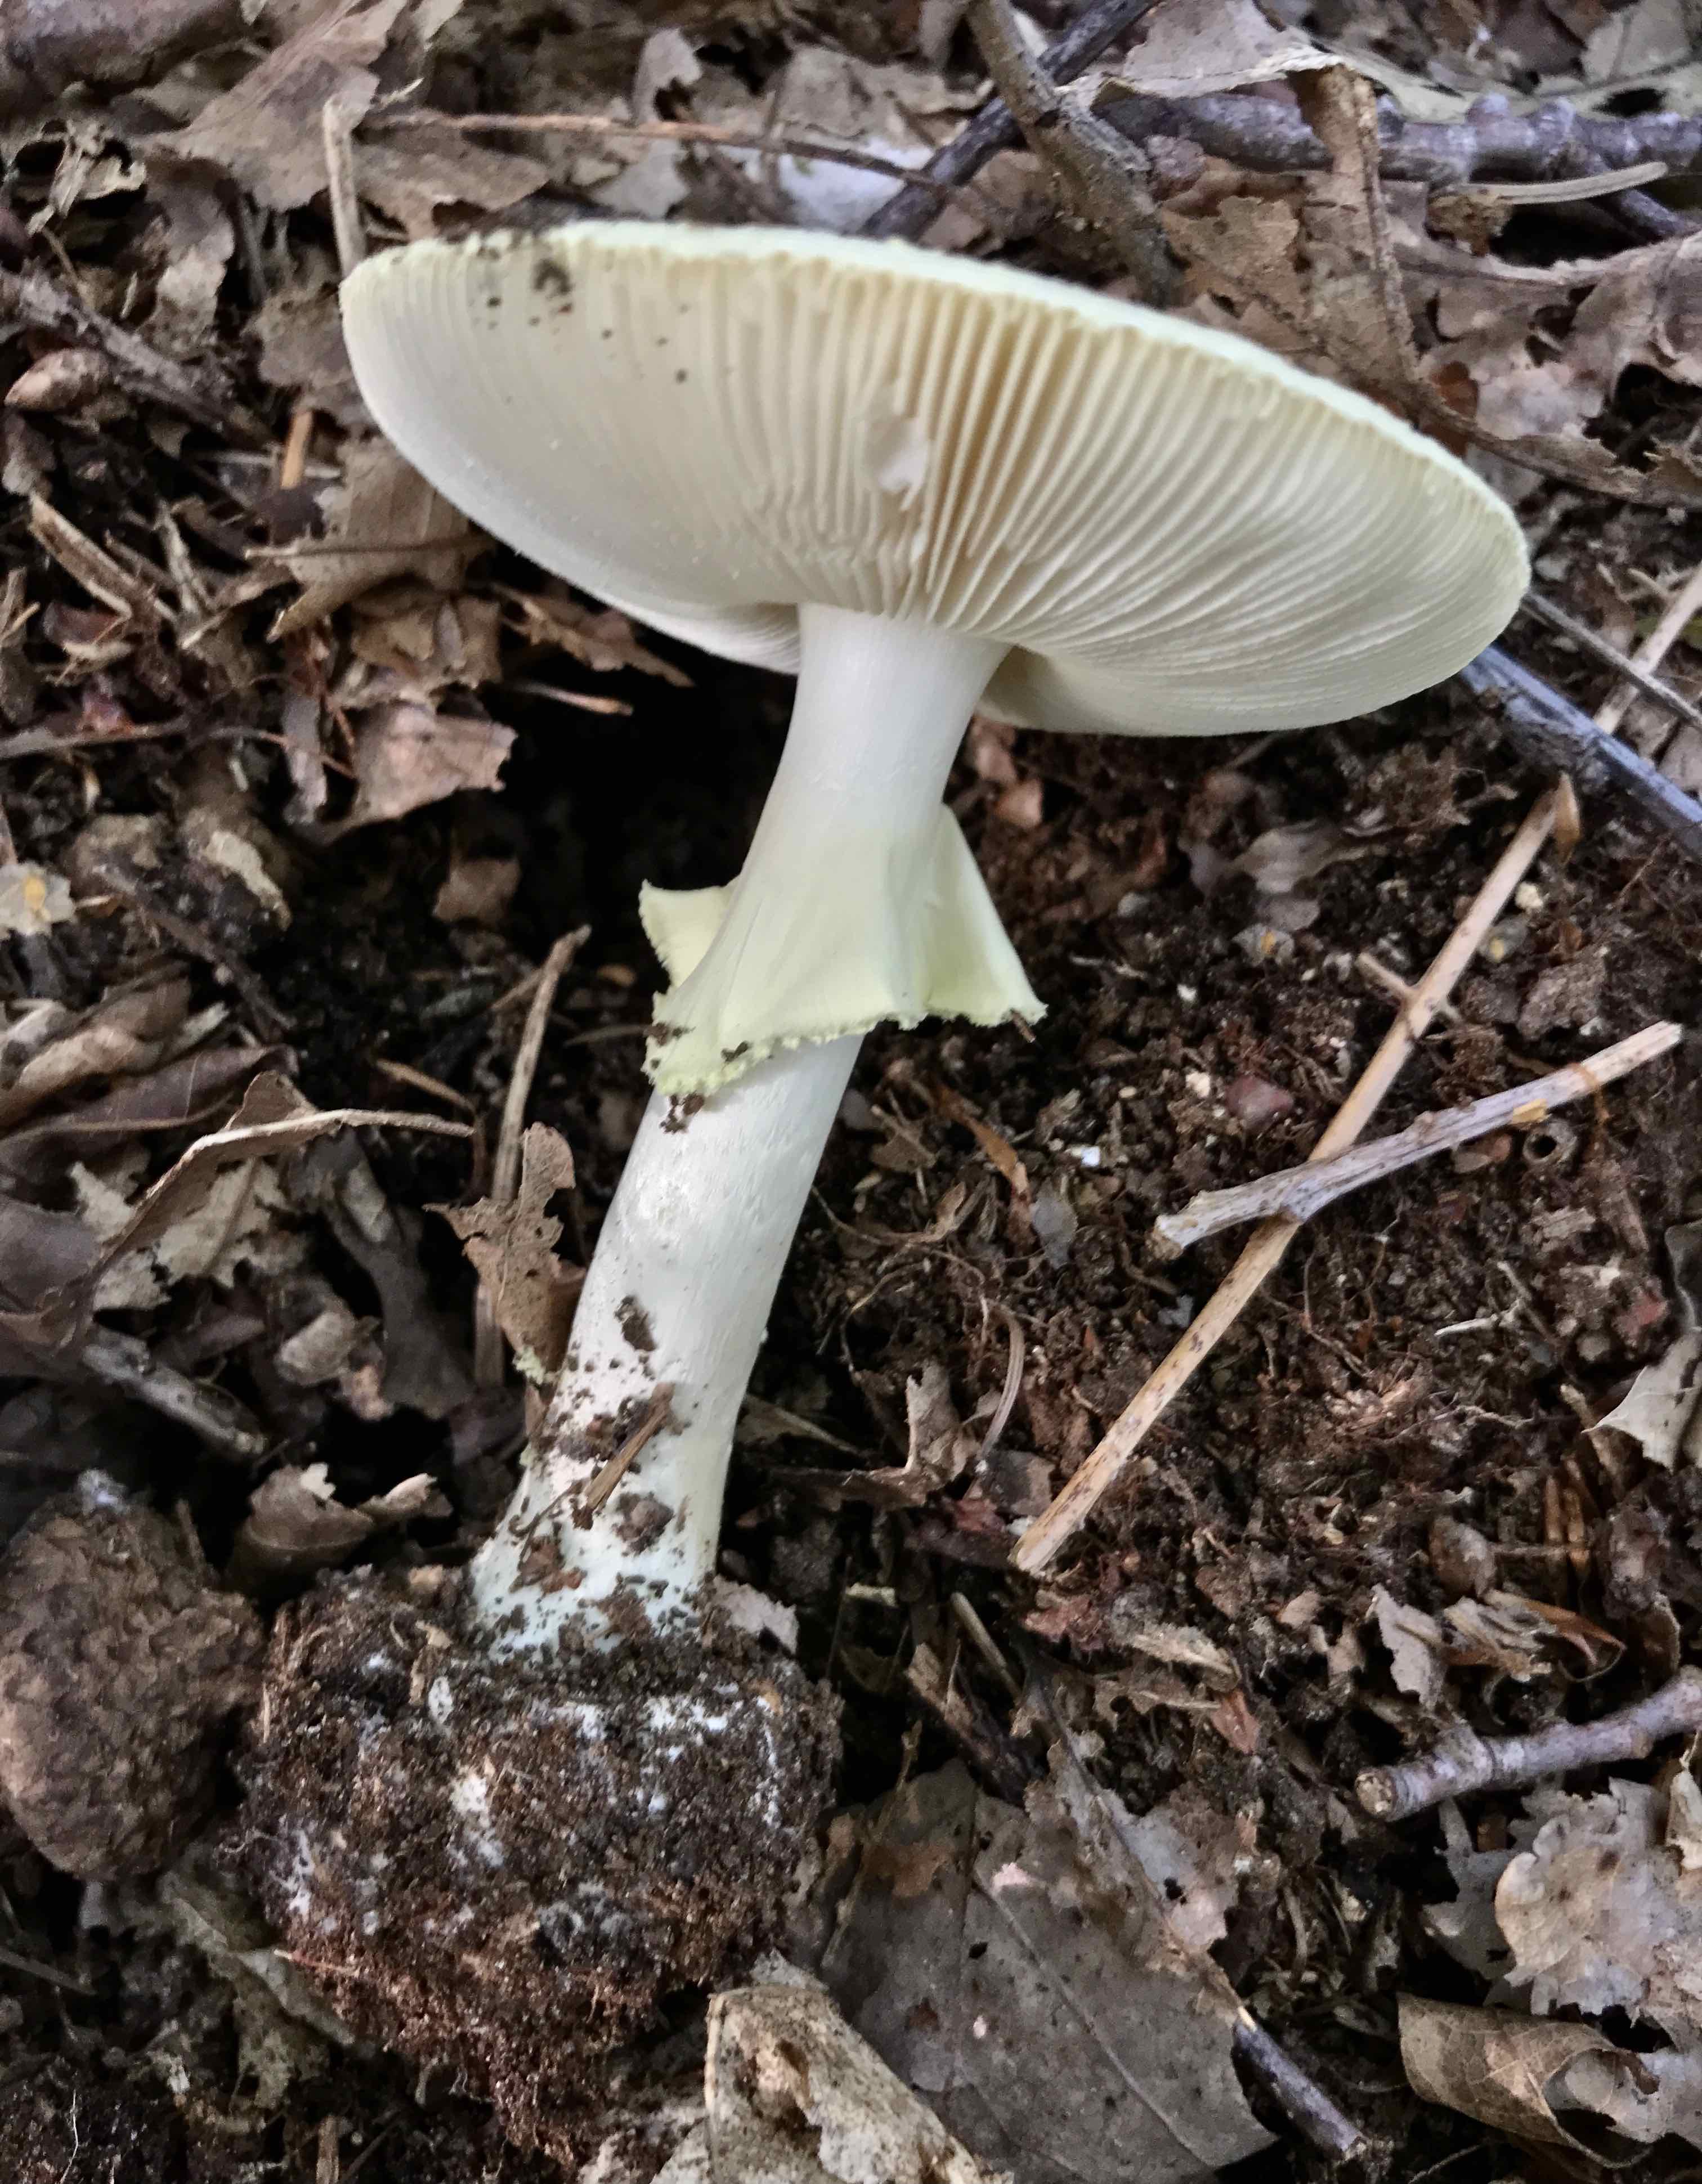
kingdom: Fungi
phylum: Basidiomycota
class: Agaricomycetes
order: Agaricales
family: Amanitaceae
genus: Amanita
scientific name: Amanita citrina
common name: kugleknoldet fluesvamp
